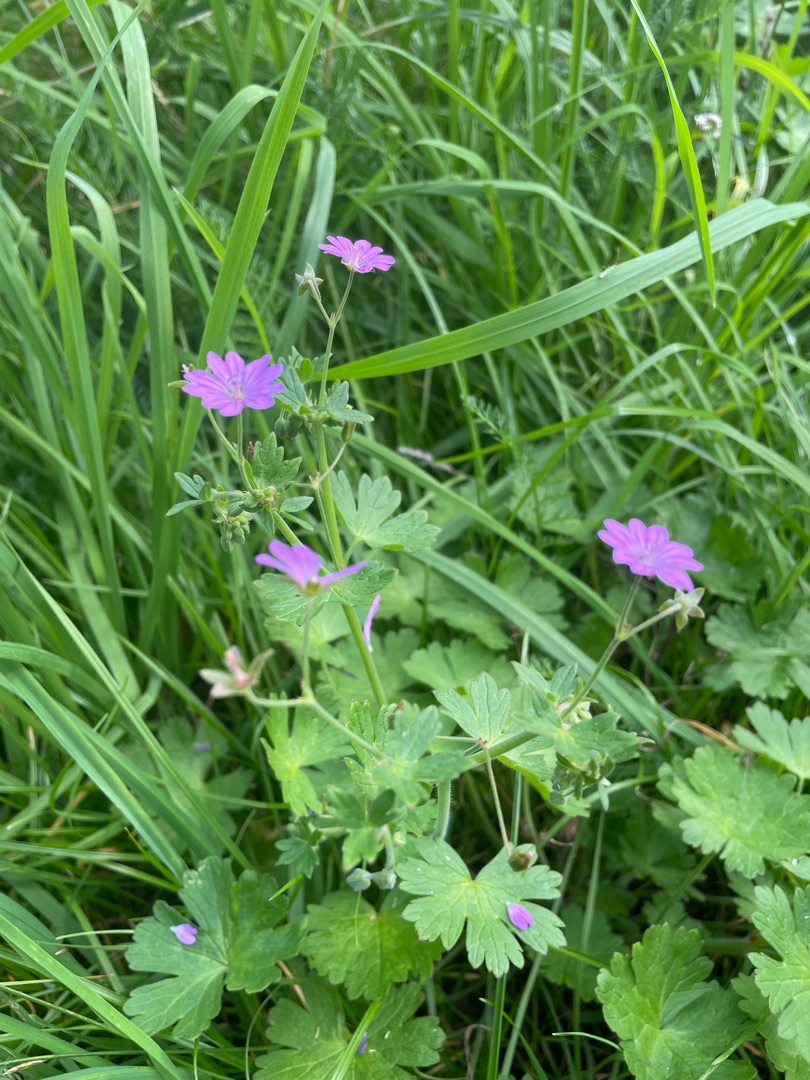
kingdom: Plantae
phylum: Tracheophyta
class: Magnoliopsida
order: Geraniales
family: Geraniaceae
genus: Geranium
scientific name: Geranium pyrenaicum
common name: Pyrenæisk storkenæb
